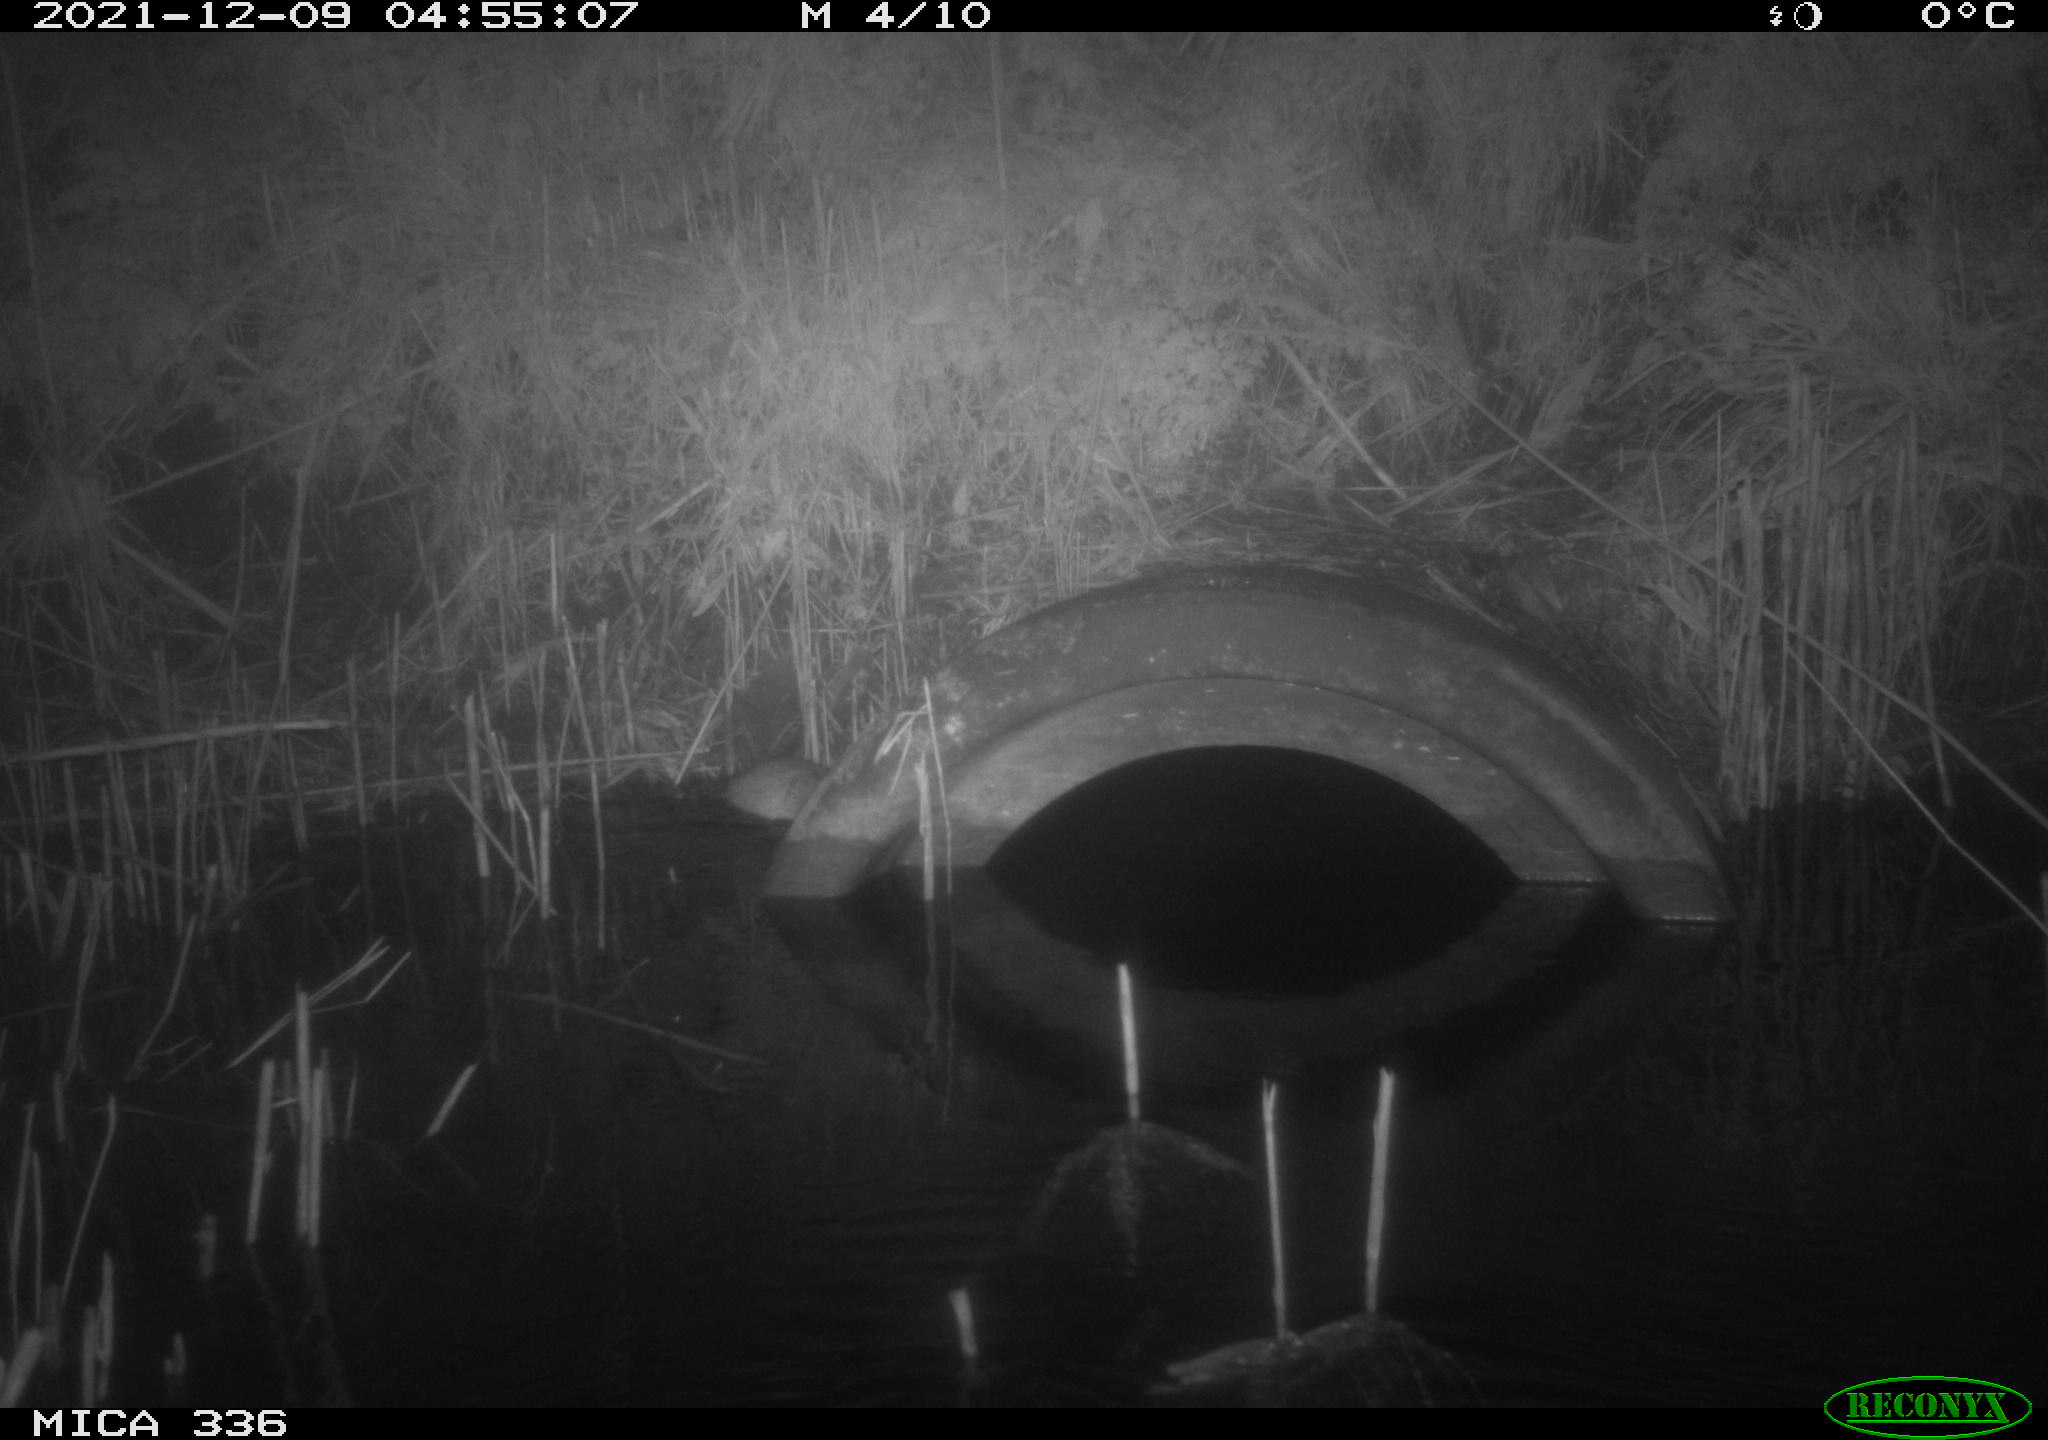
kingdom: Animalia
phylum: Chordata
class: Mammalia
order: Rodentia
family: Muridae
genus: Rattus
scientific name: Rattus norvegicus
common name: Brown rat
